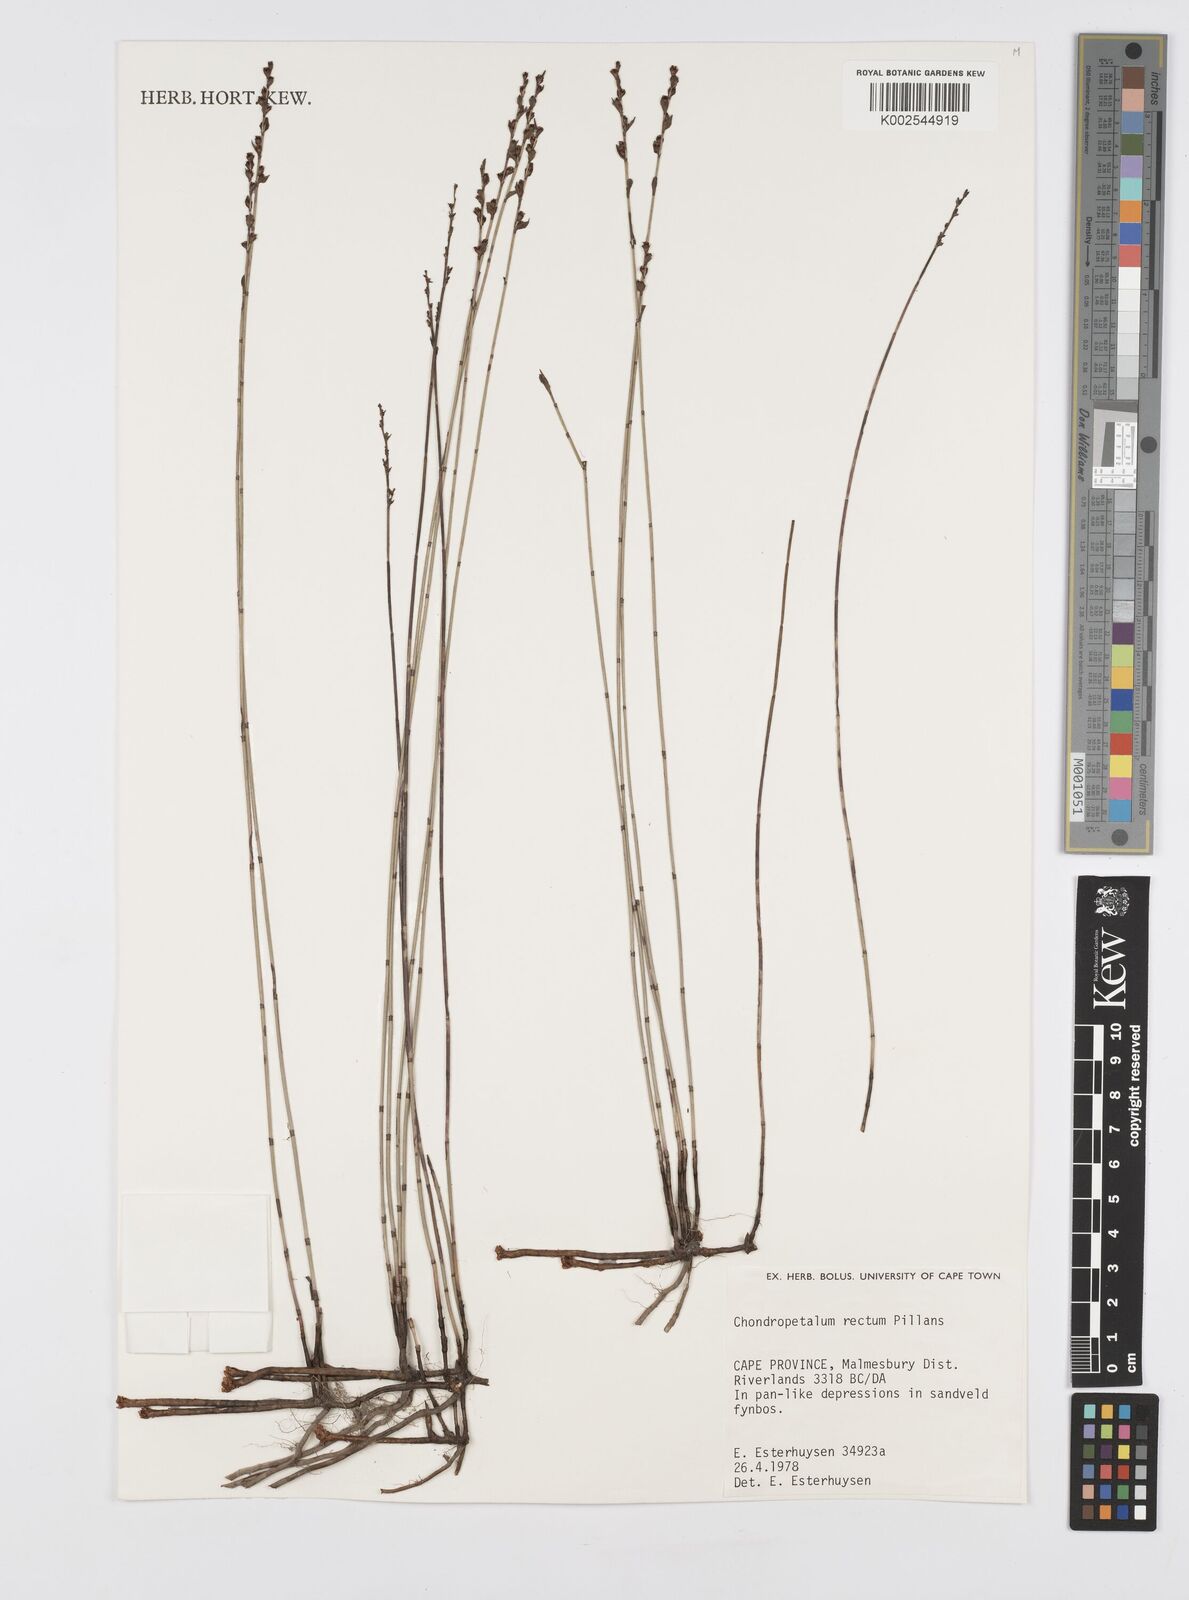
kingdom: Plantae
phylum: Tracheophyta
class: Liliopsida
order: Poales
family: Restionaceae
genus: Elegia
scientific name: Elegia recta
